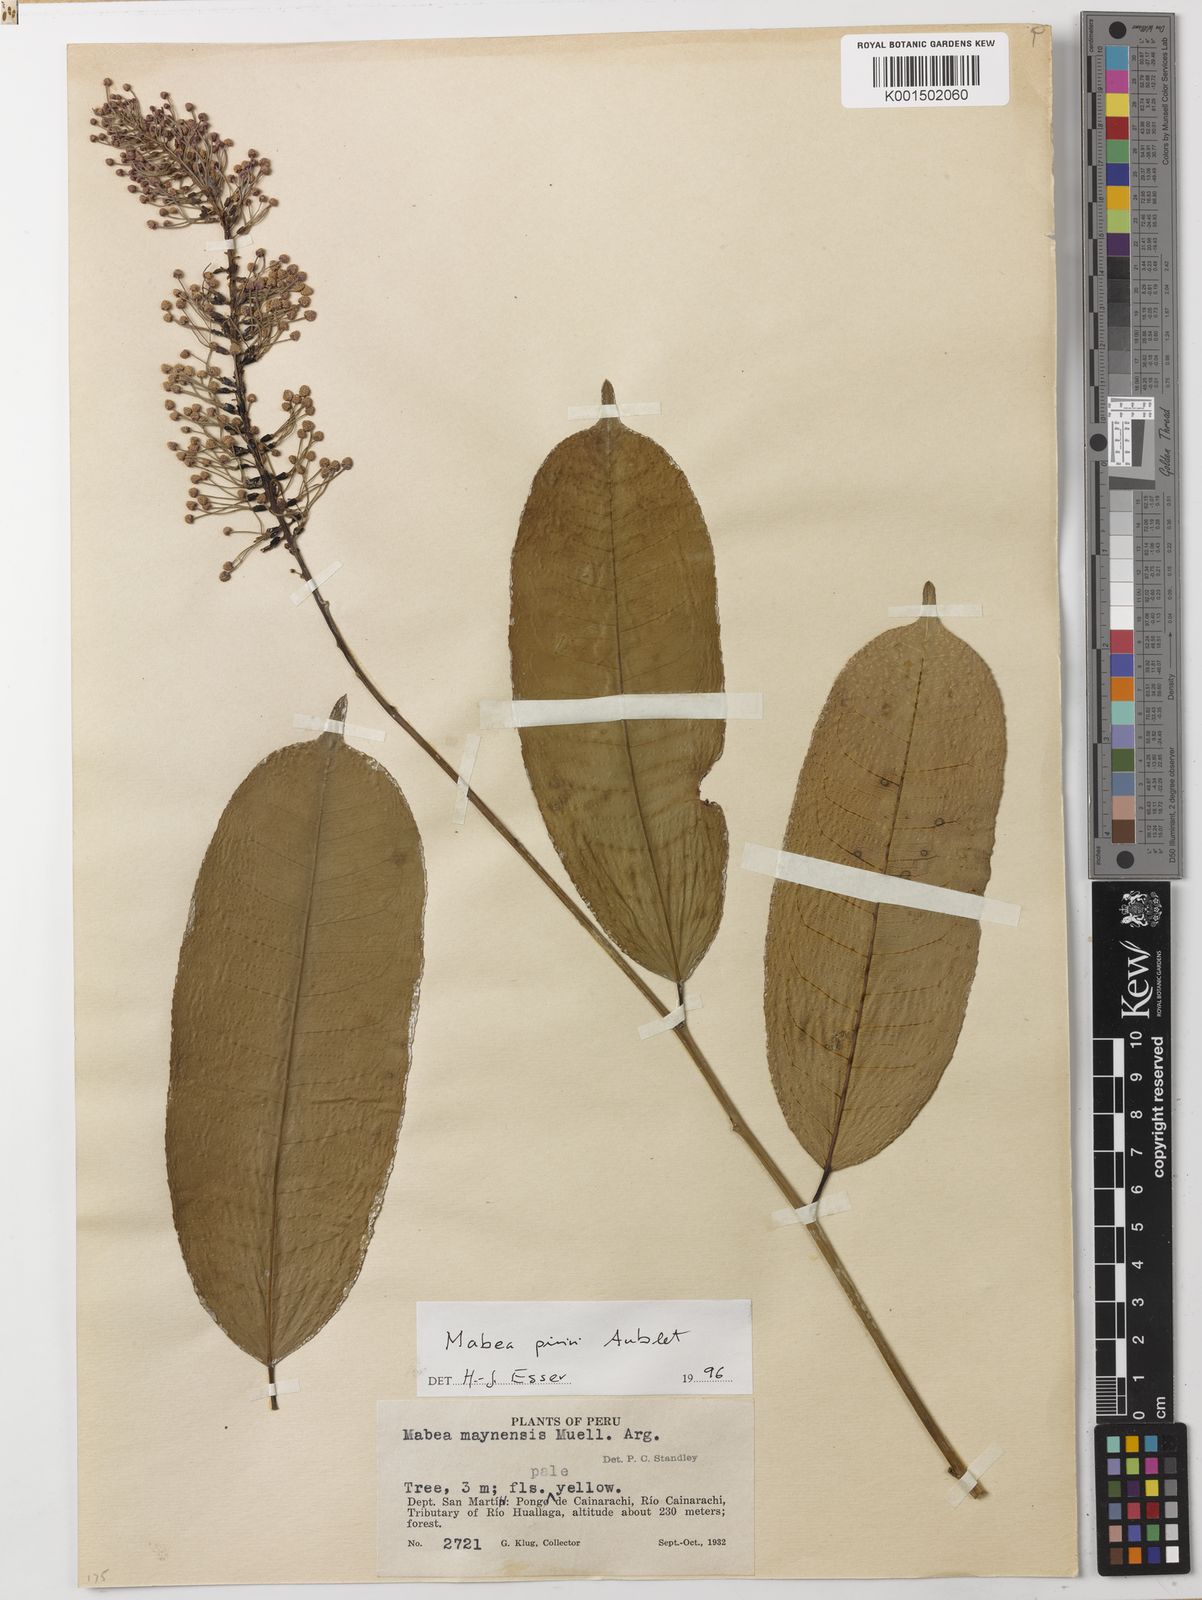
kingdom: Plantae
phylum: Tracheophyta
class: Magnoliopsida
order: Malpighiales
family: Euphorbiaceae
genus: Mabea
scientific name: Mabea piriri
